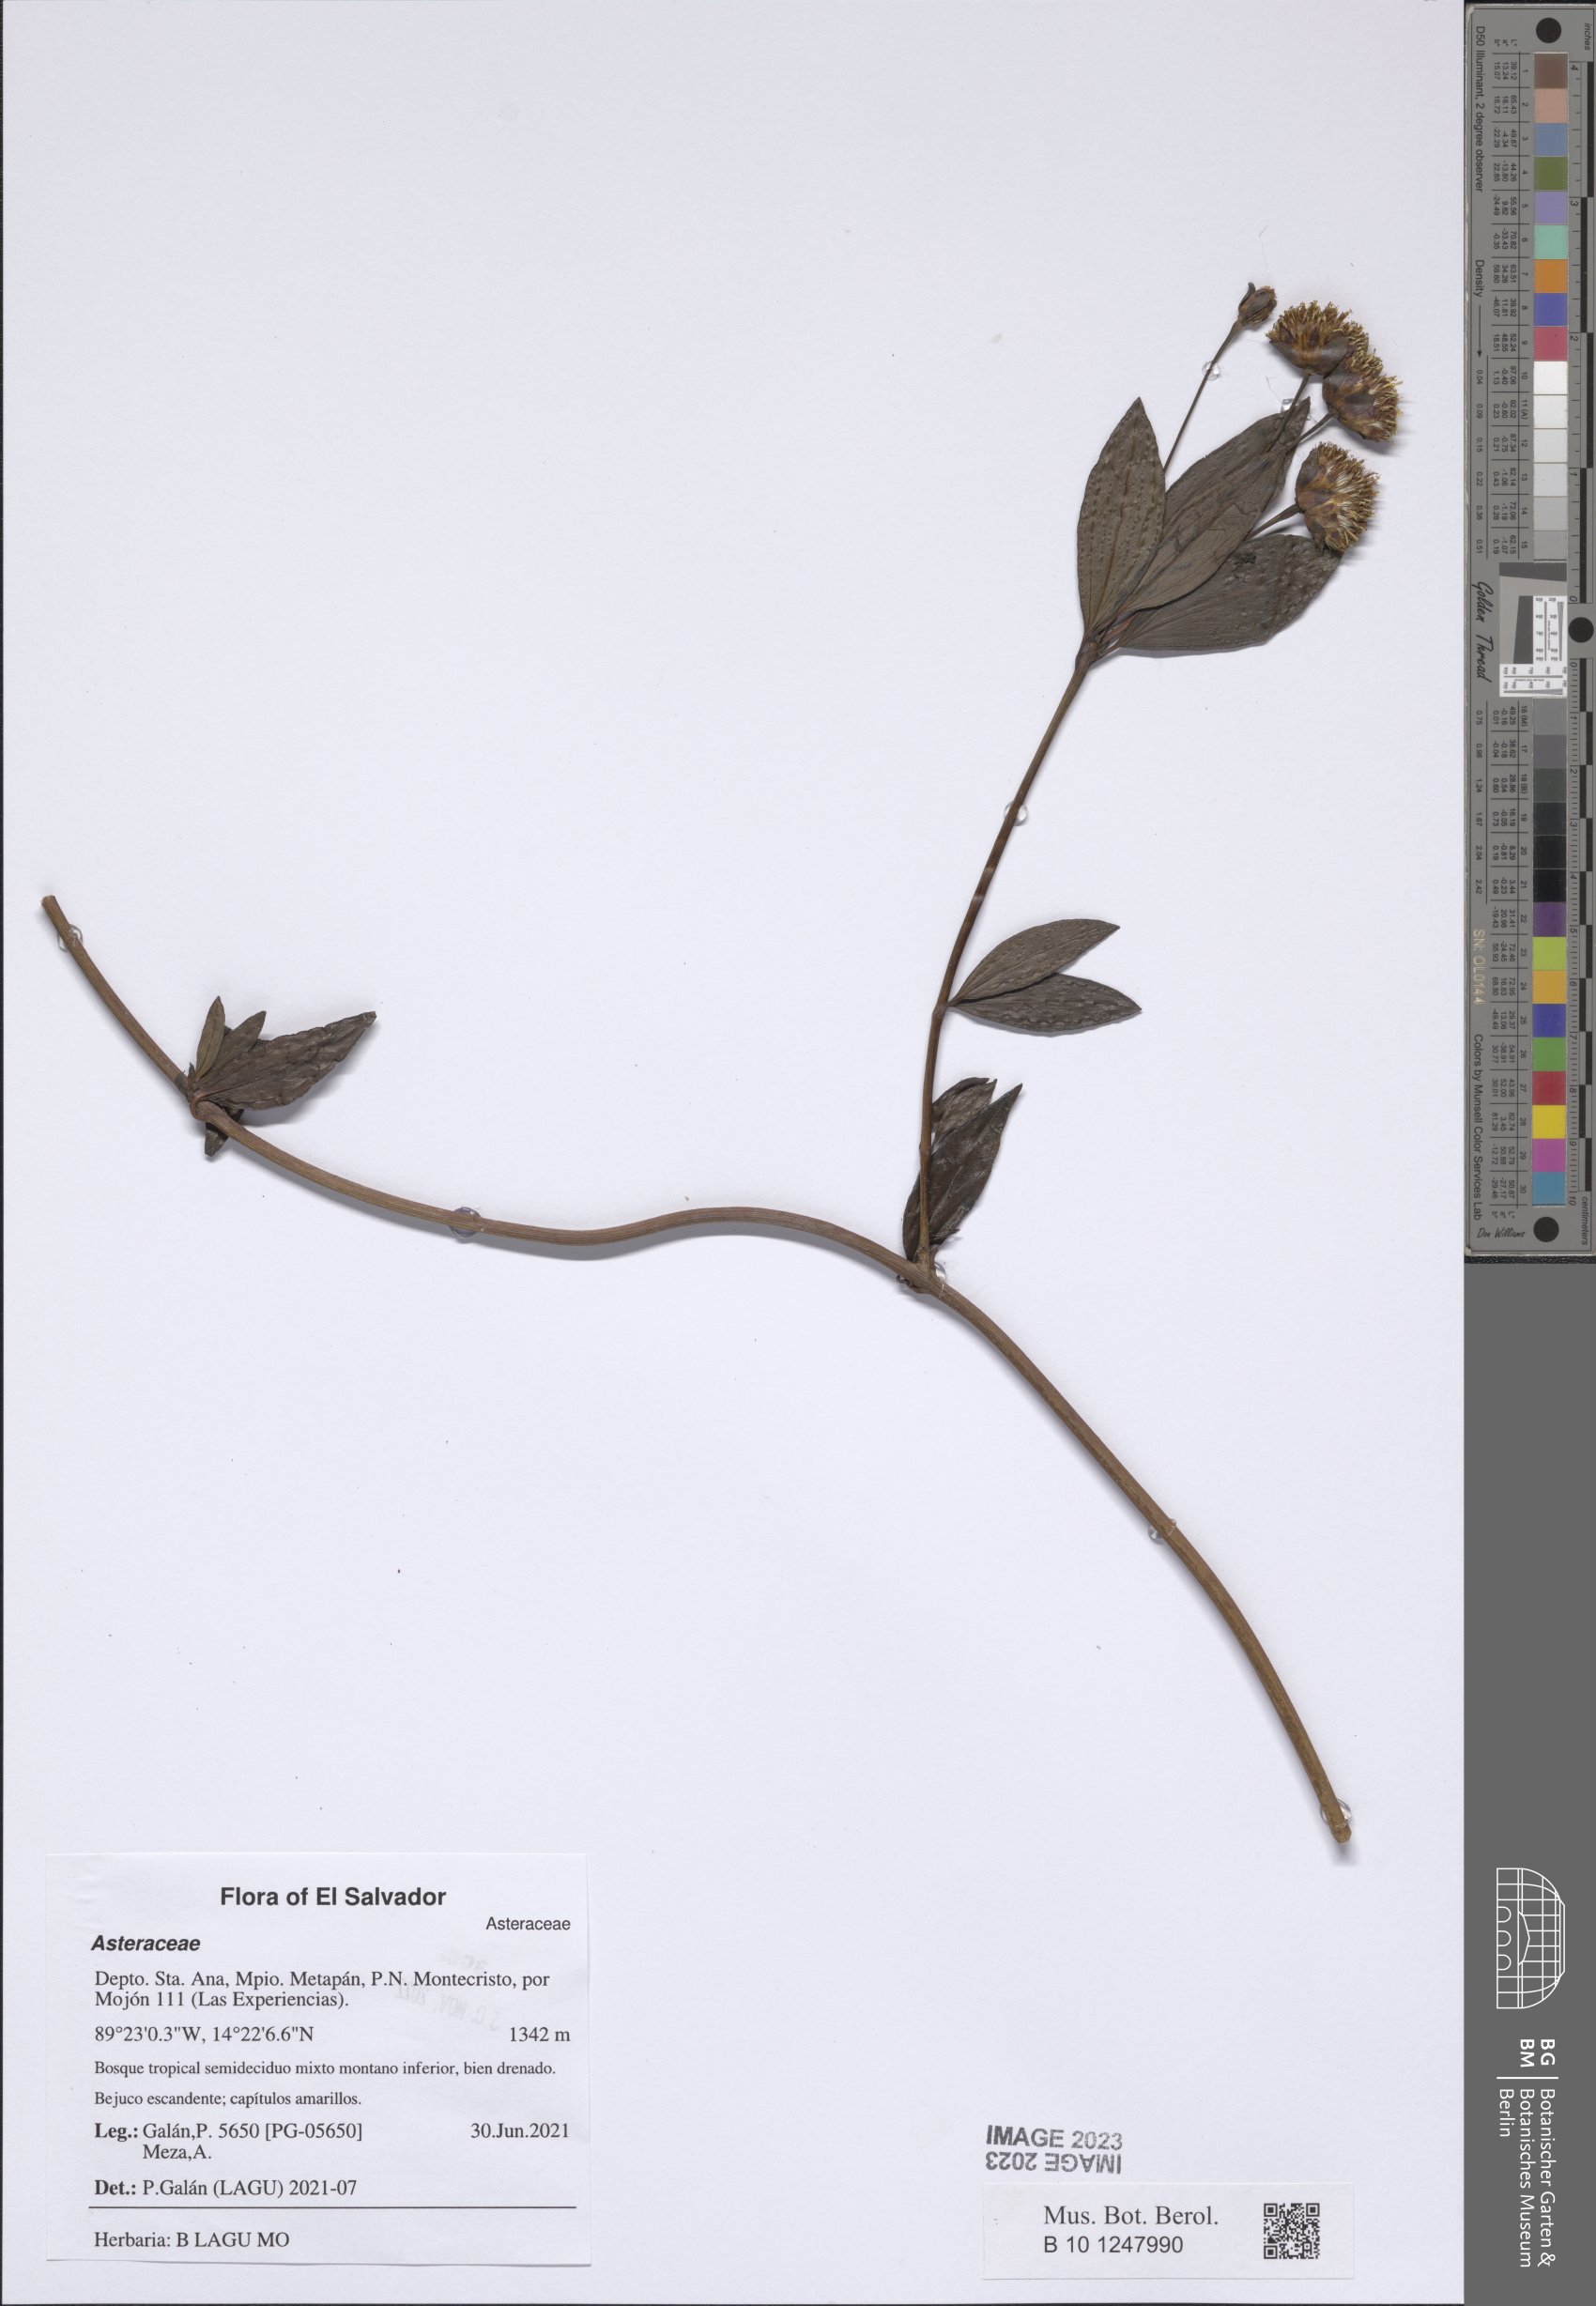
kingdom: Plantae
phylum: Tracheophyta
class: Magnoliopsida
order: Asterales
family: Asteraceae
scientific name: Asteraceae
